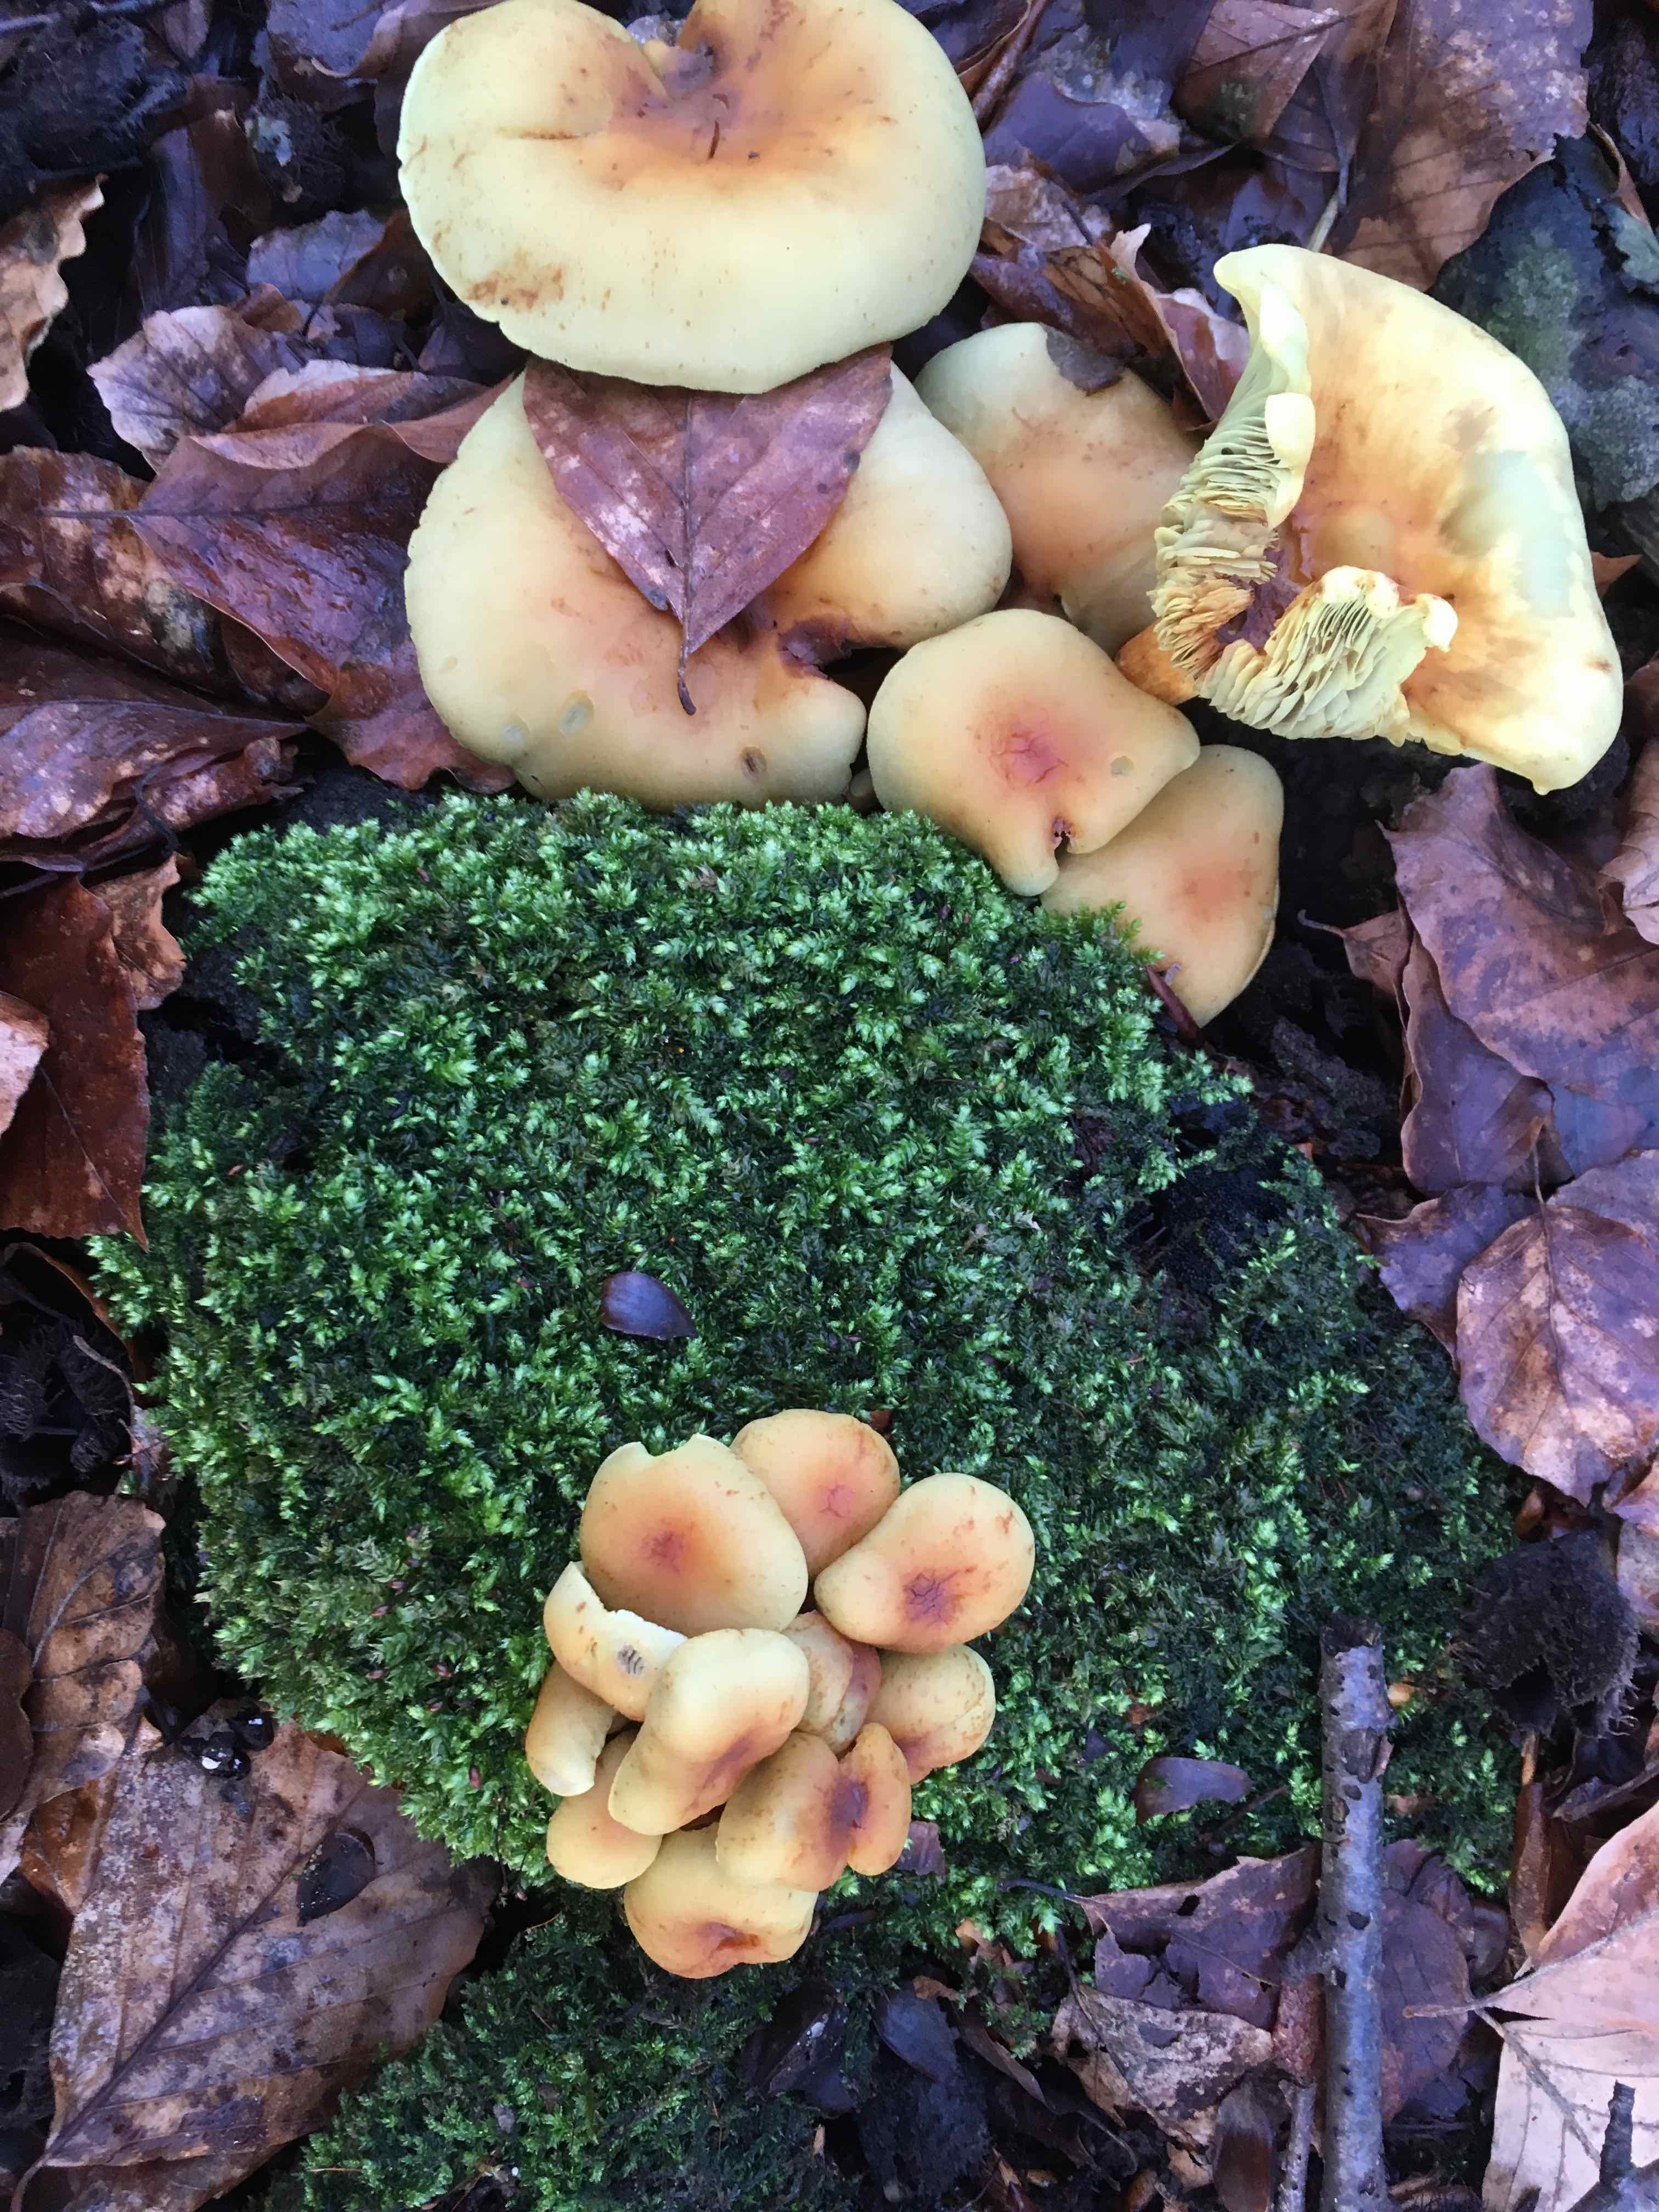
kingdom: Fungi
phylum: Basidiomycota
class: Agaricomycetes
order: Agaricales
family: Strophariaceae
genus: Hypholoma
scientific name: Hypholoma fasciculare
